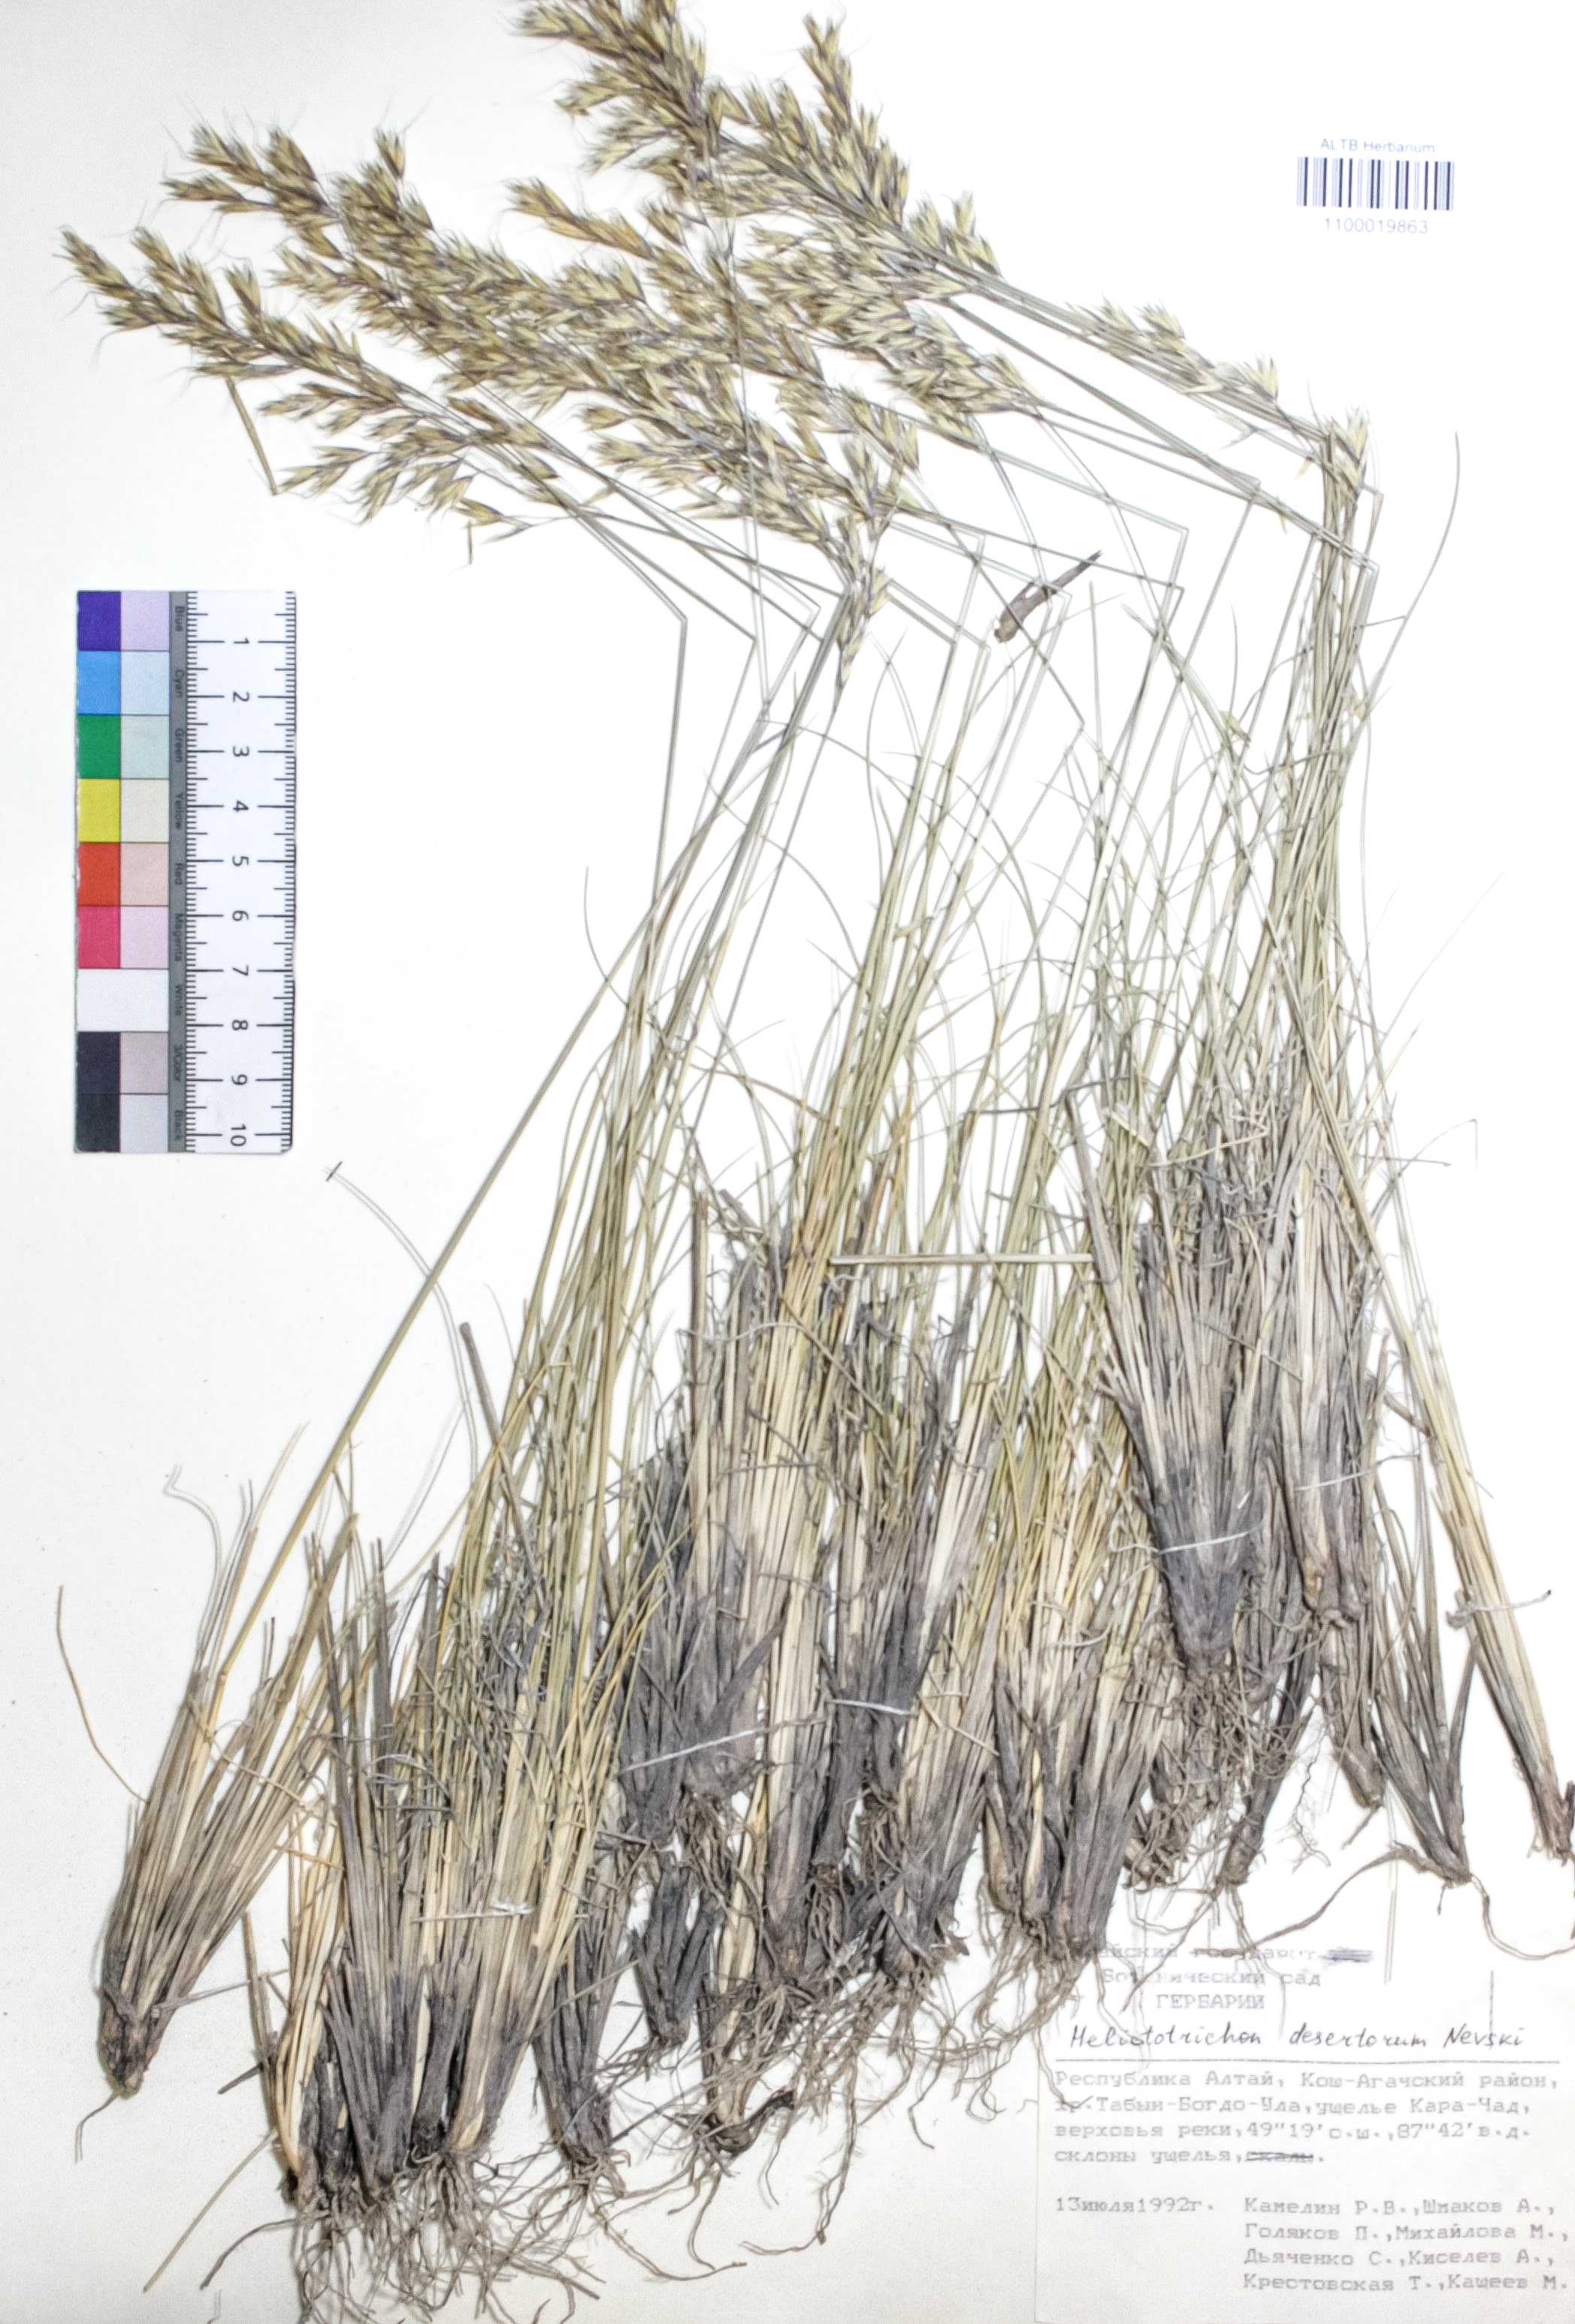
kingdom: Plantae
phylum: Tracheophyta
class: Liliopsida
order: Poales
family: Poaceae
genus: Helictotrichon
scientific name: Helictotrichon desertorum
